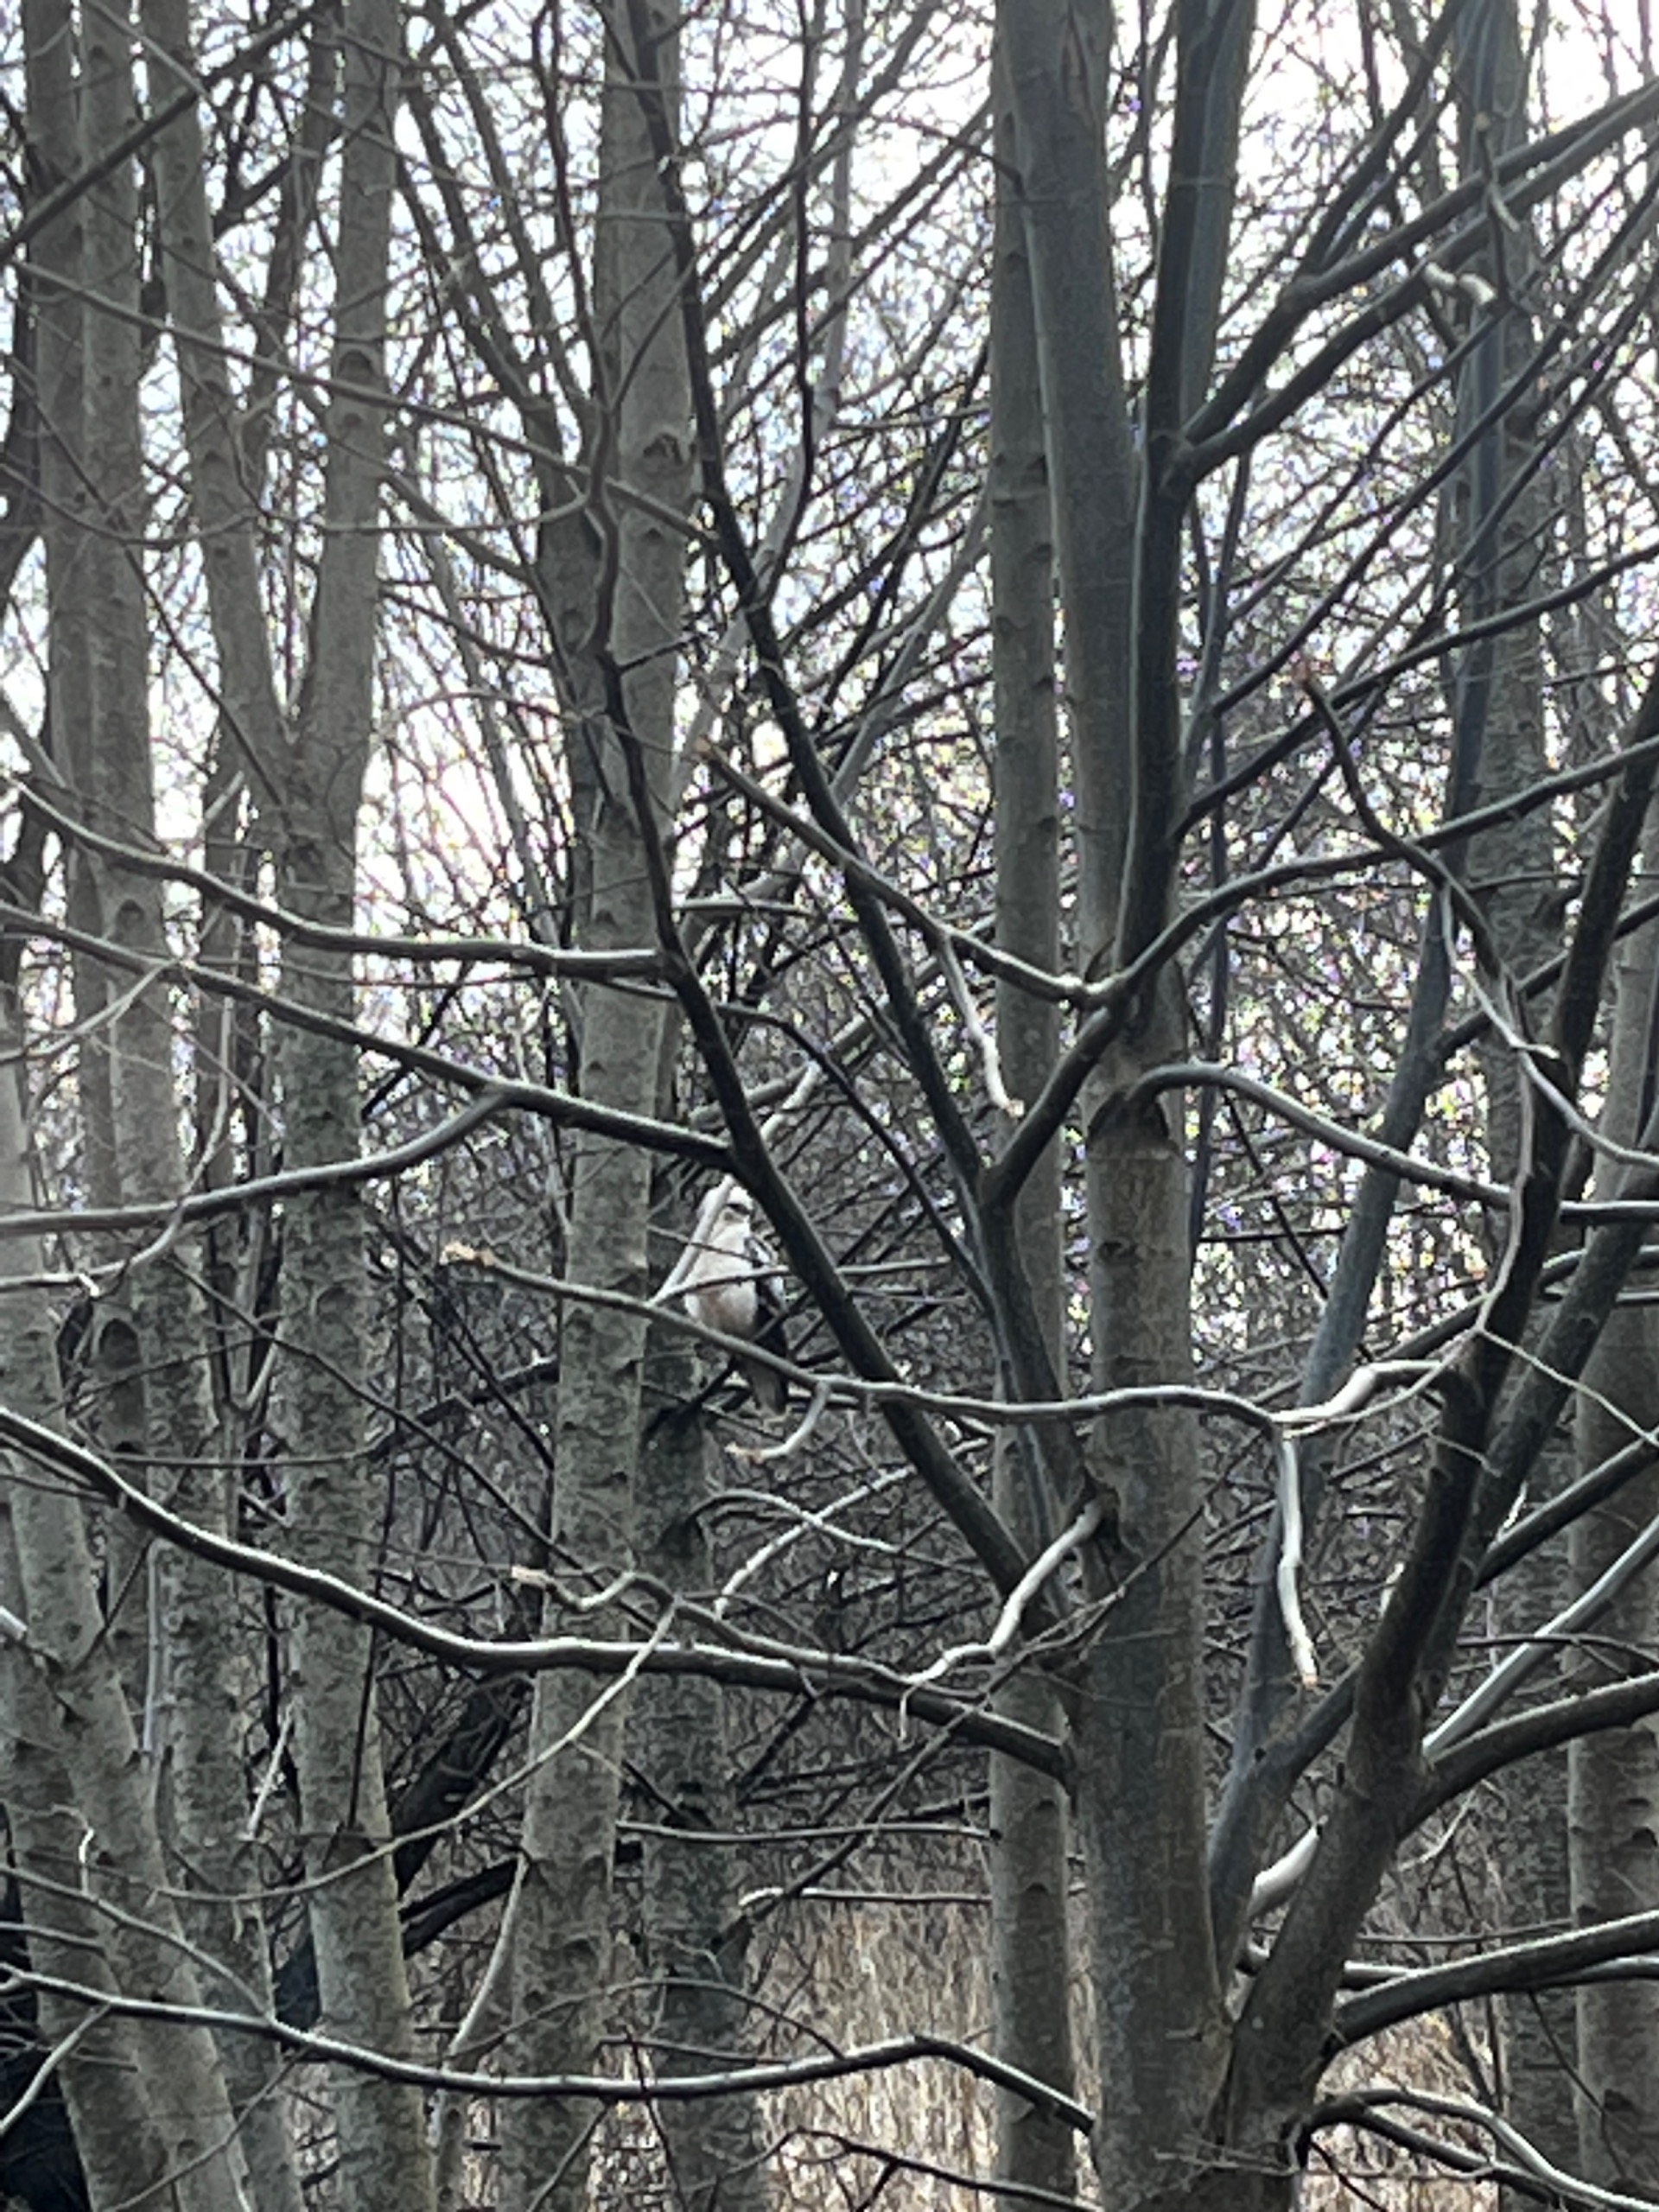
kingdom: Animalia
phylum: Chordata
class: Aves
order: Accipitriformes
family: Accipitridae
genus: Buteo
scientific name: Buteo buteo
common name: Musvåge
